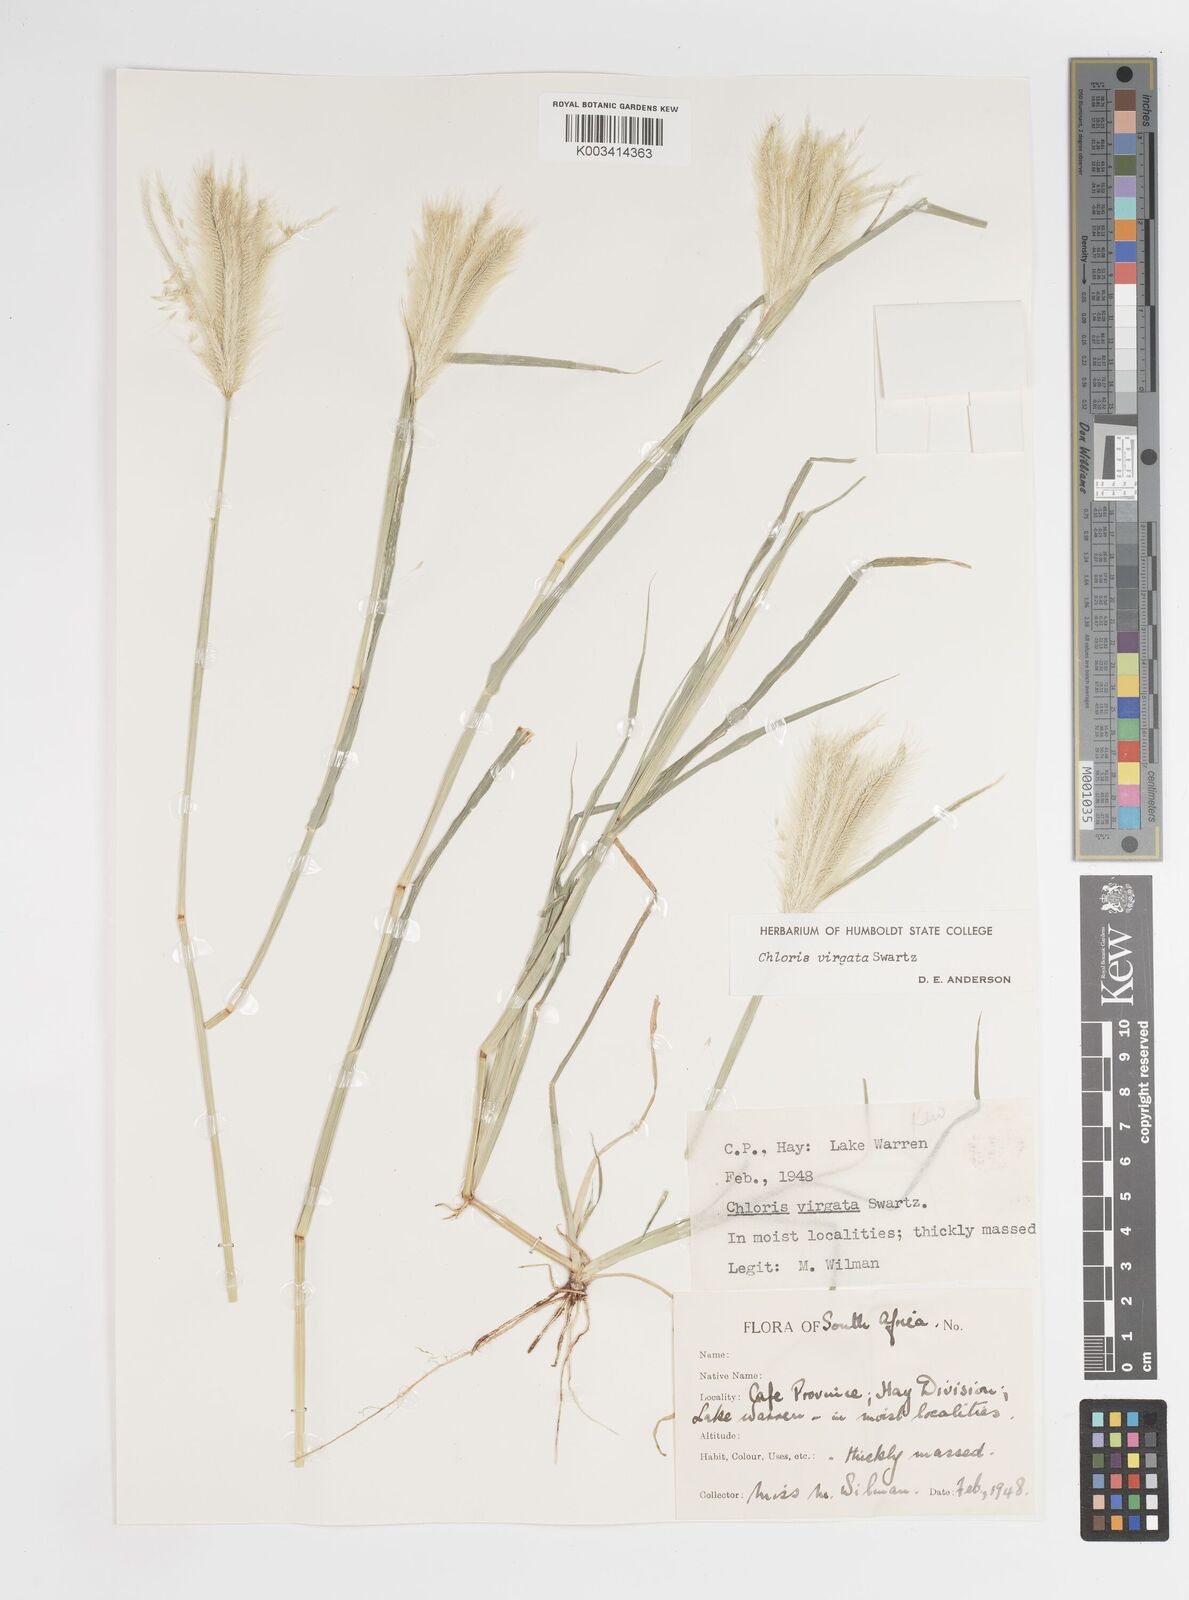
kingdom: Plantae
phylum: Tracheophyta
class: Liliopsida
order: Poales
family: Poaceae
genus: Chloris
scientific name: Chloris virgata
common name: Feathery rhodes-grass
